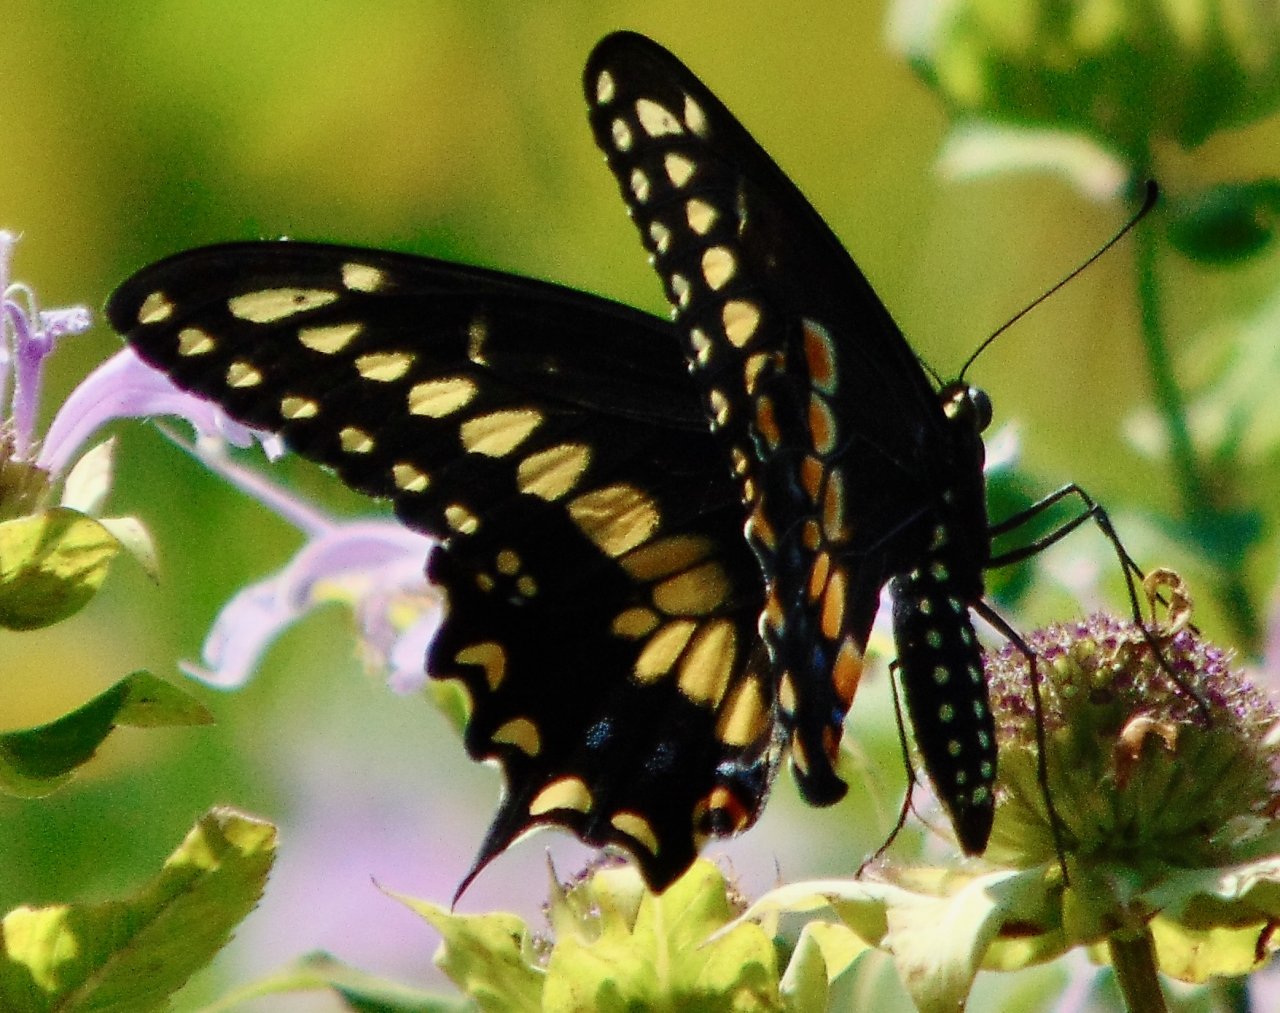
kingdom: Animalia
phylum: Arthropoda
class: Insecta
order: Lepidoptera
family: Papilionidae
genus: Papilio
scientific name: Papilio polyxenes
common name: Black Swallowtail
